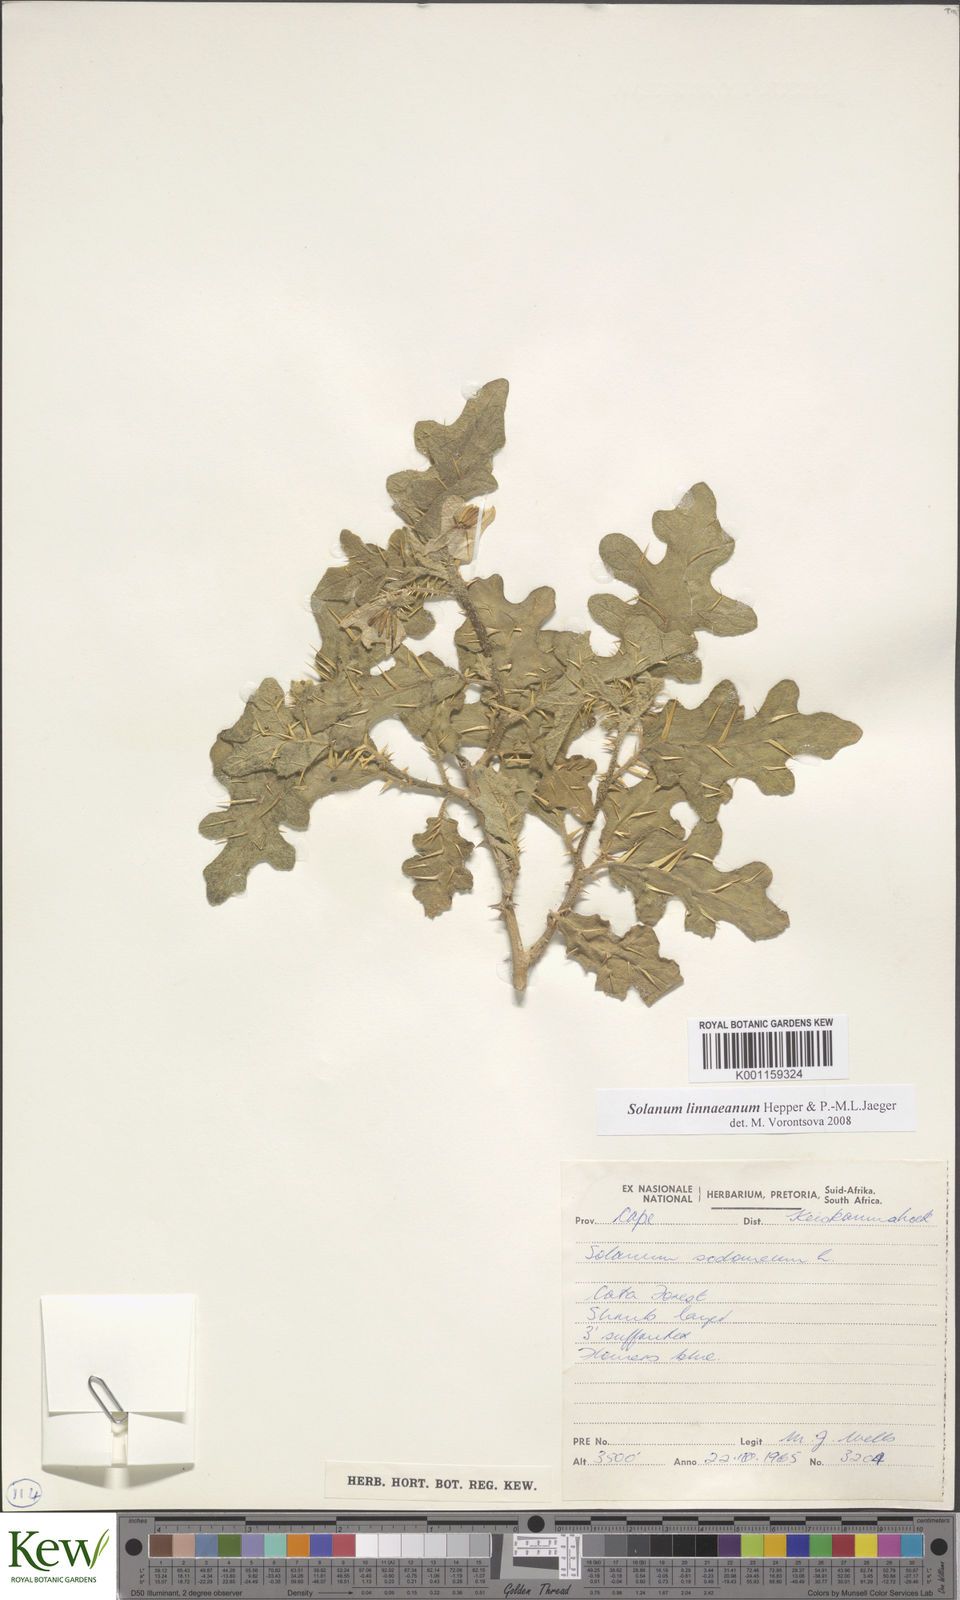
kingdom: Plantae
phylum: Tracheophyta
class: Magnoliopsida
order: Solanales
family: Solanaceae
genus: Solanum
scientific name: Solanum linnaeanum
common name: Nightshade
